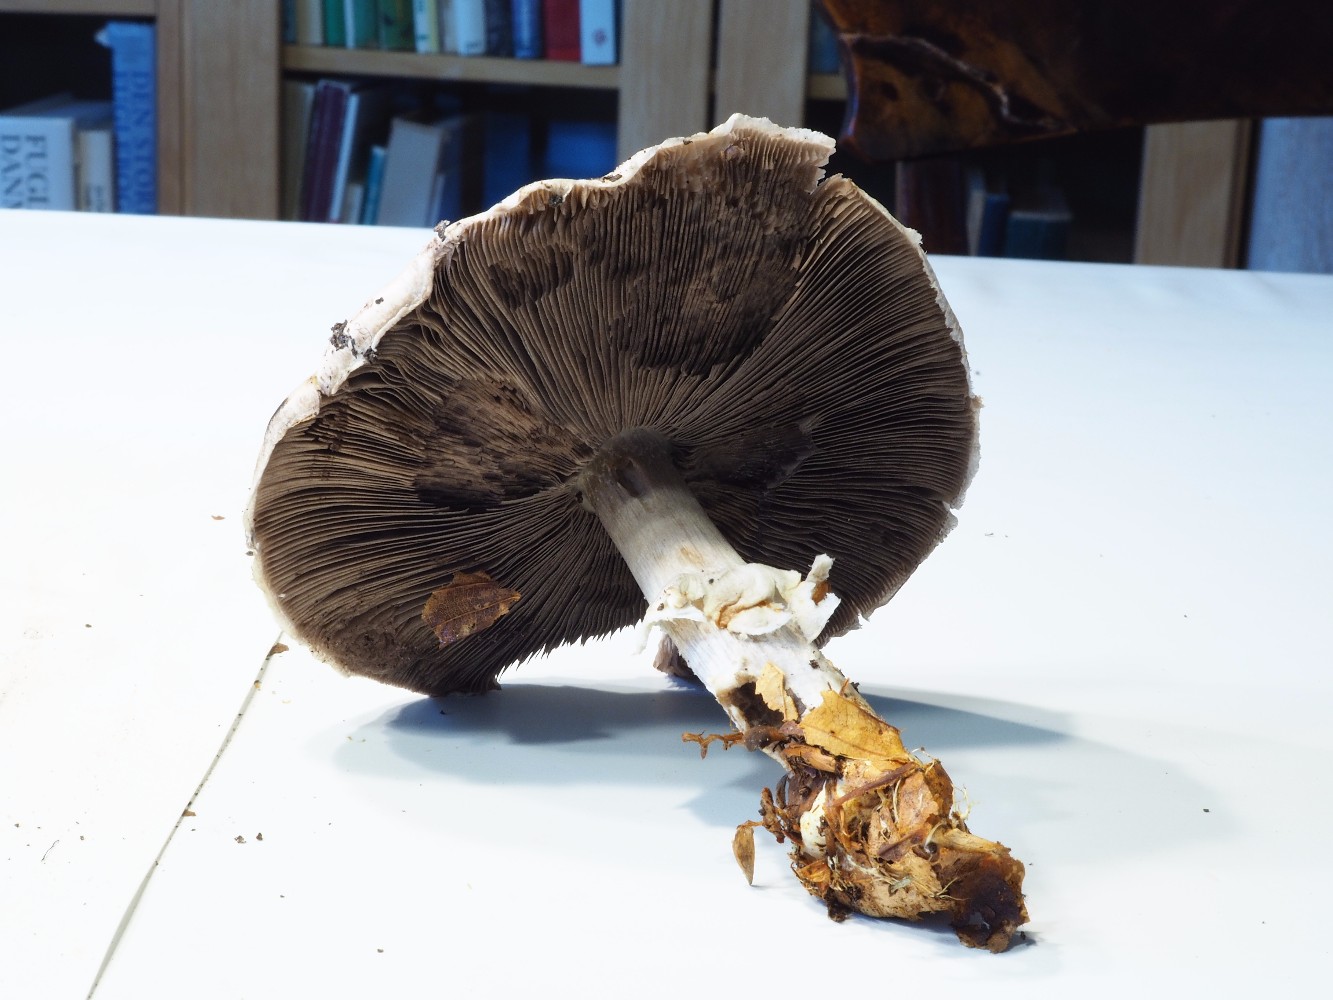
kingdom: Fungi
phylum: Basidiomycota
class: Agaricomycetes
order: Agaricales
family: Agaricaceae
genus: Agaricus
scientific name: Agaricus arvensis
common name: ager-champignon
